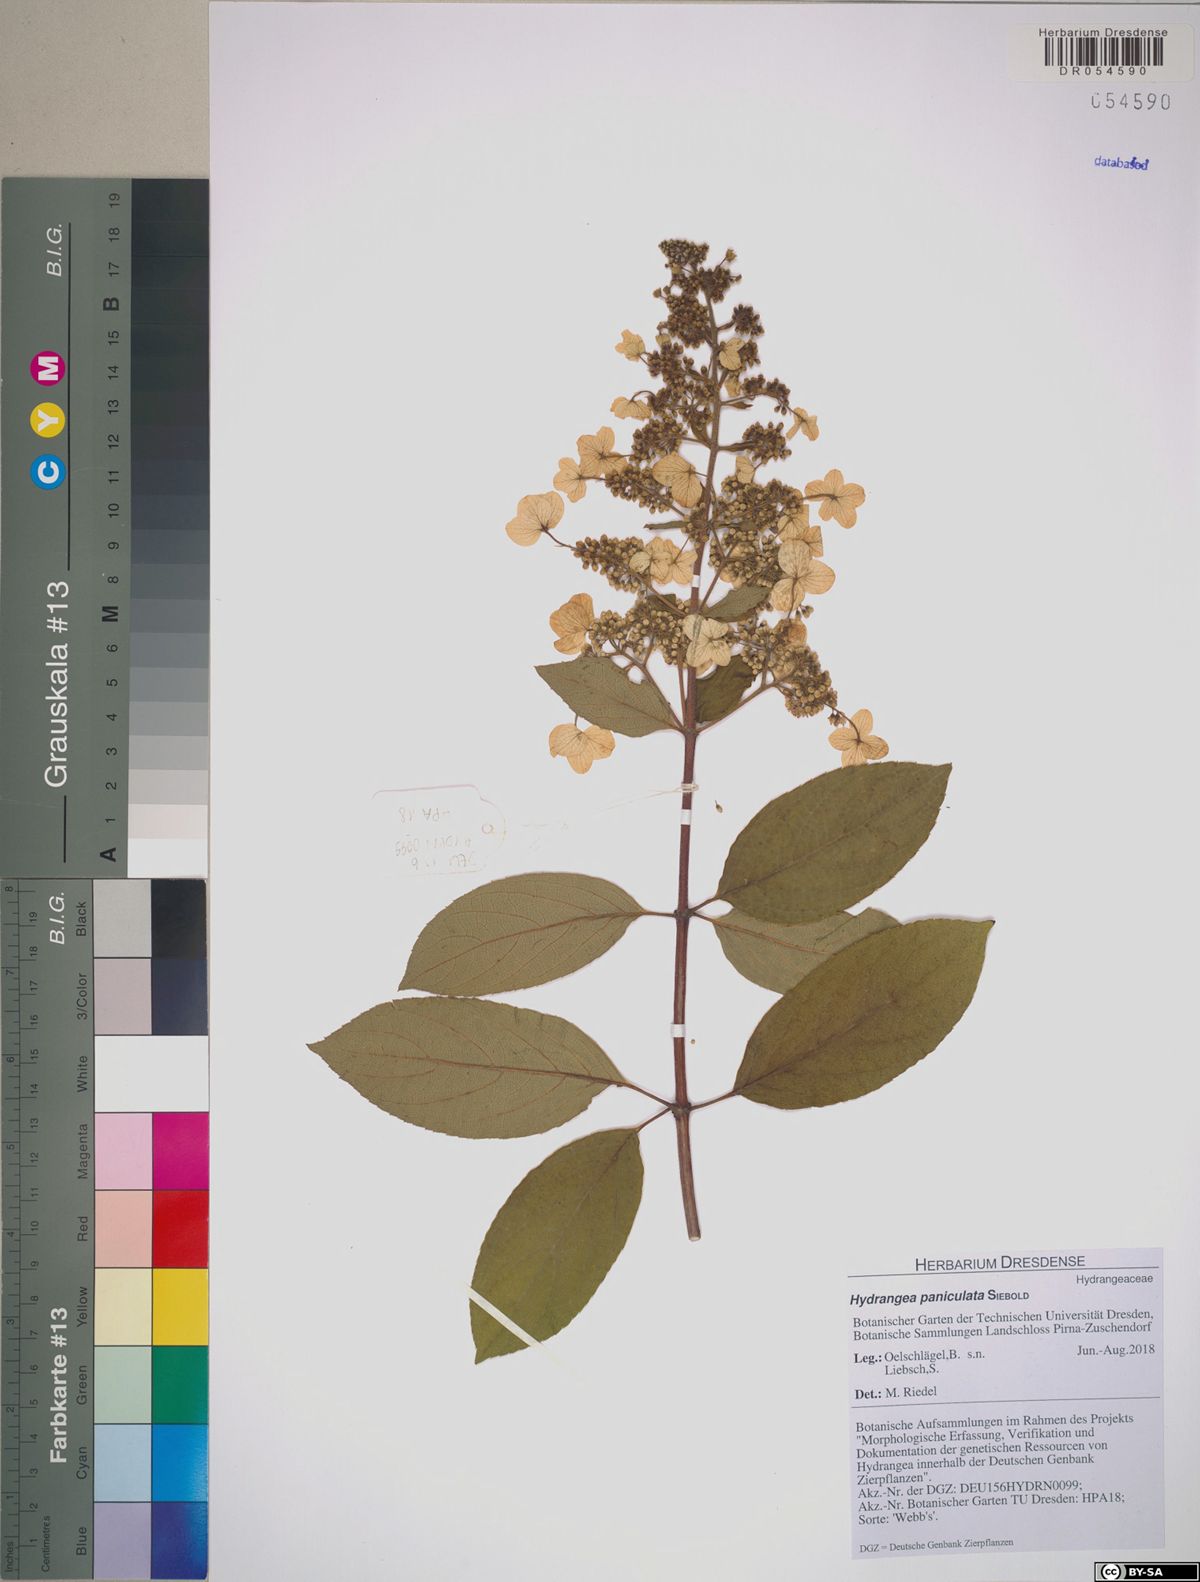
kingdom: Plantae
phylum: Tracheophyta
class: Magnoliopsida
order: Cornales
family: Hydrangeaceae
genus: Hydrangea
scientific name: Hydrangea paniculata
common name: Panicled hydrangea
